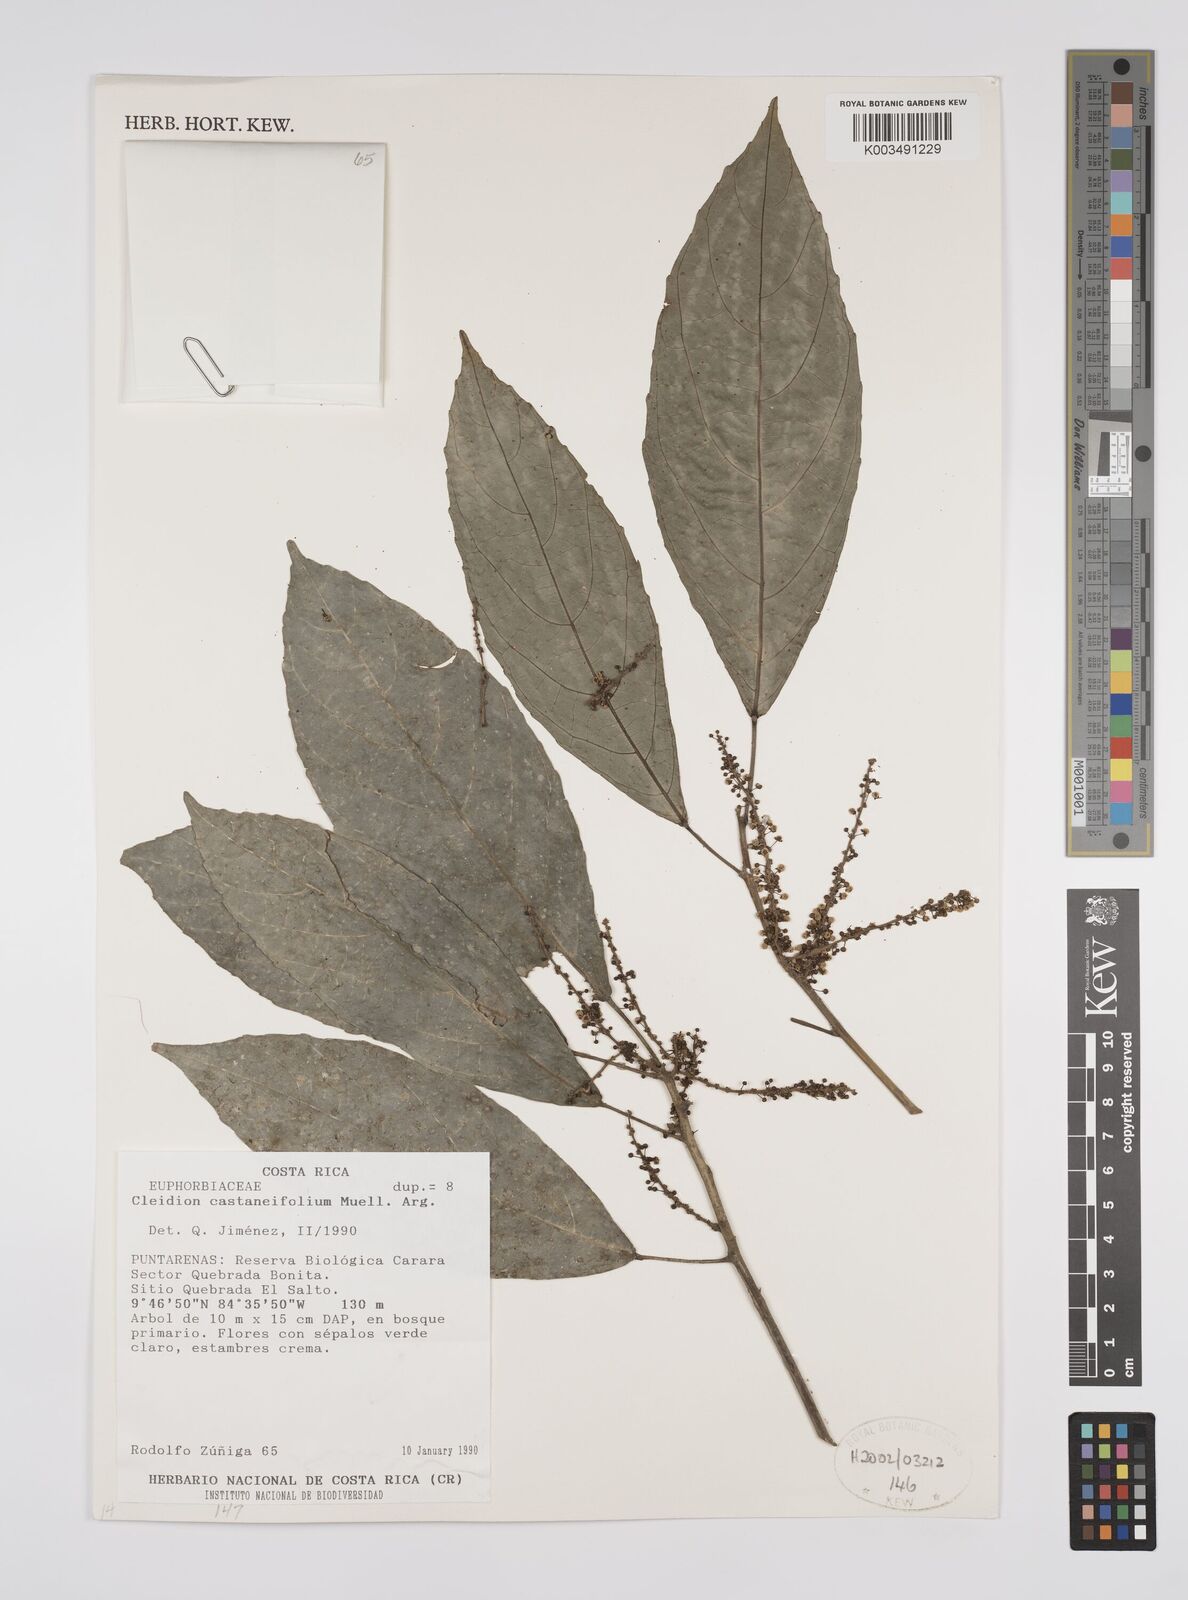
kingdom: Plantae
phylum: Tracheophyta
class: Magnoliopsida
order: Malpighiales
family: Euphorbiaceae
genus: Cleidion
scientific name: Cleidion castaneifolium
